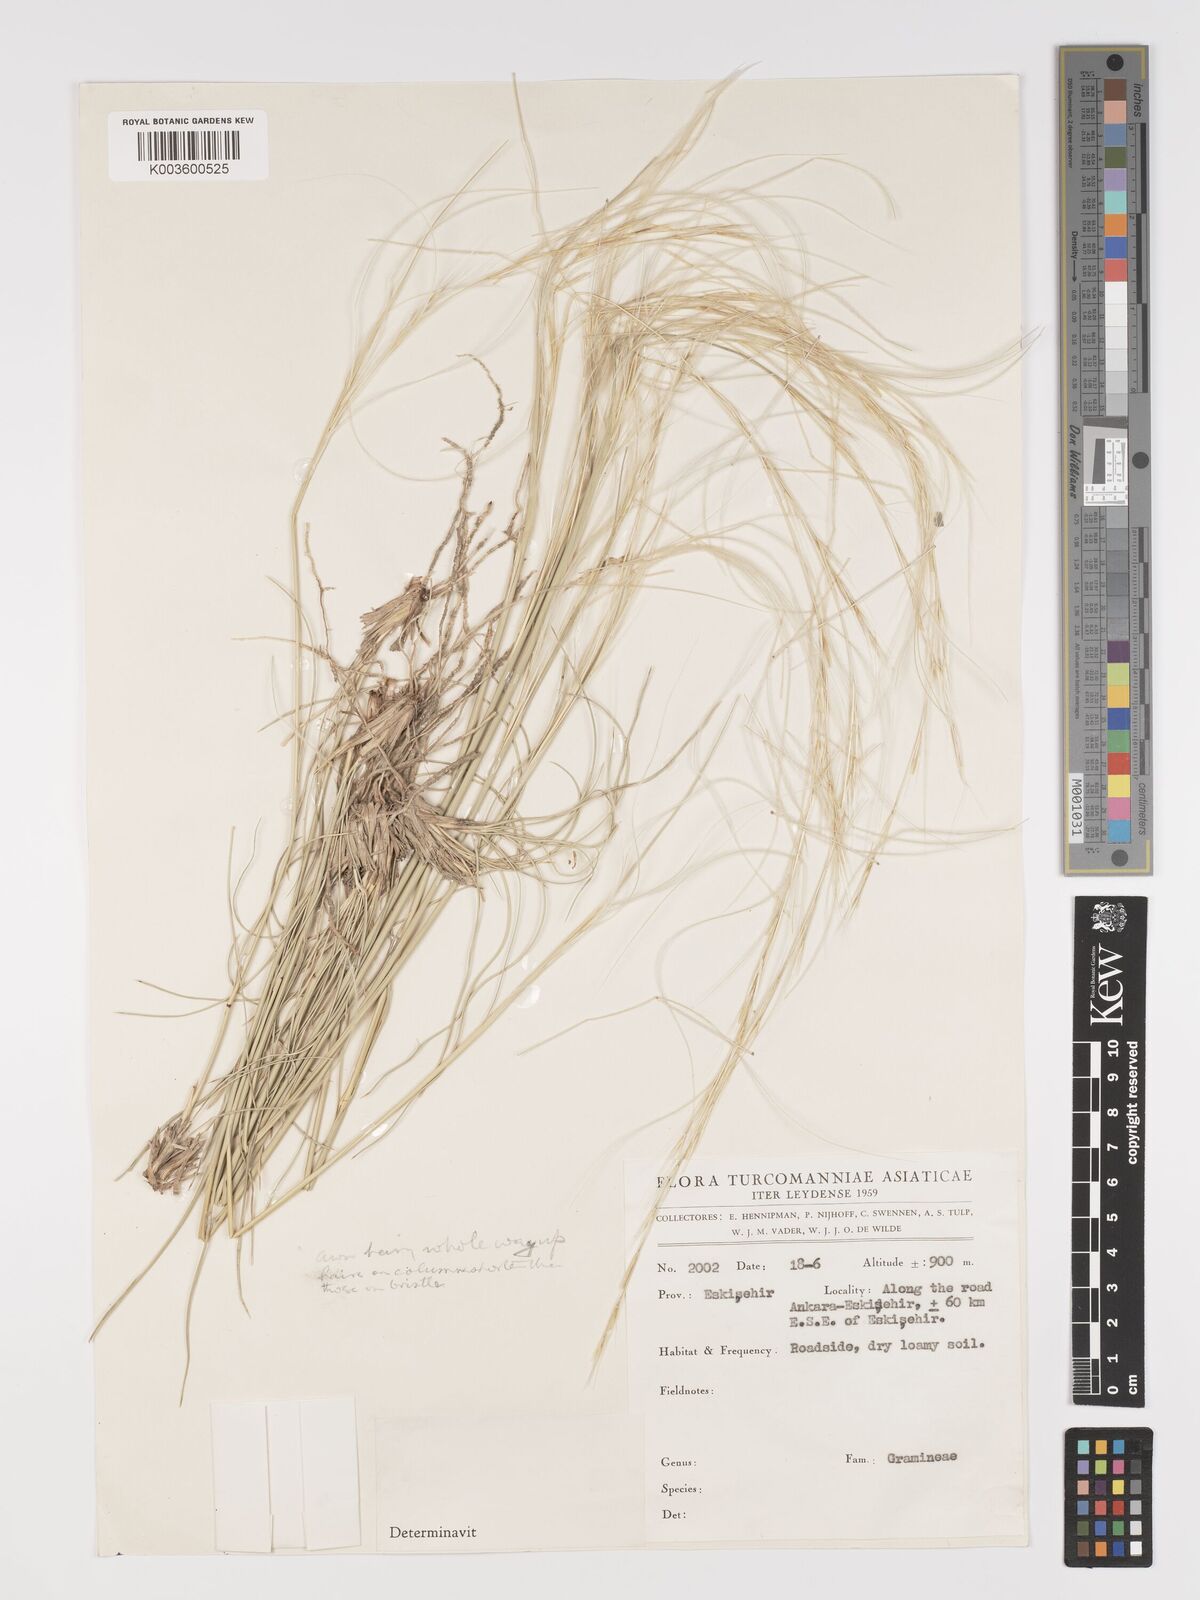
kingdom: Plantae
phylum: Tracheophyta
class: Liliopsida
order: Poales
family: Poaceae
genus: Stipa
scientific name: Stipa barbata
